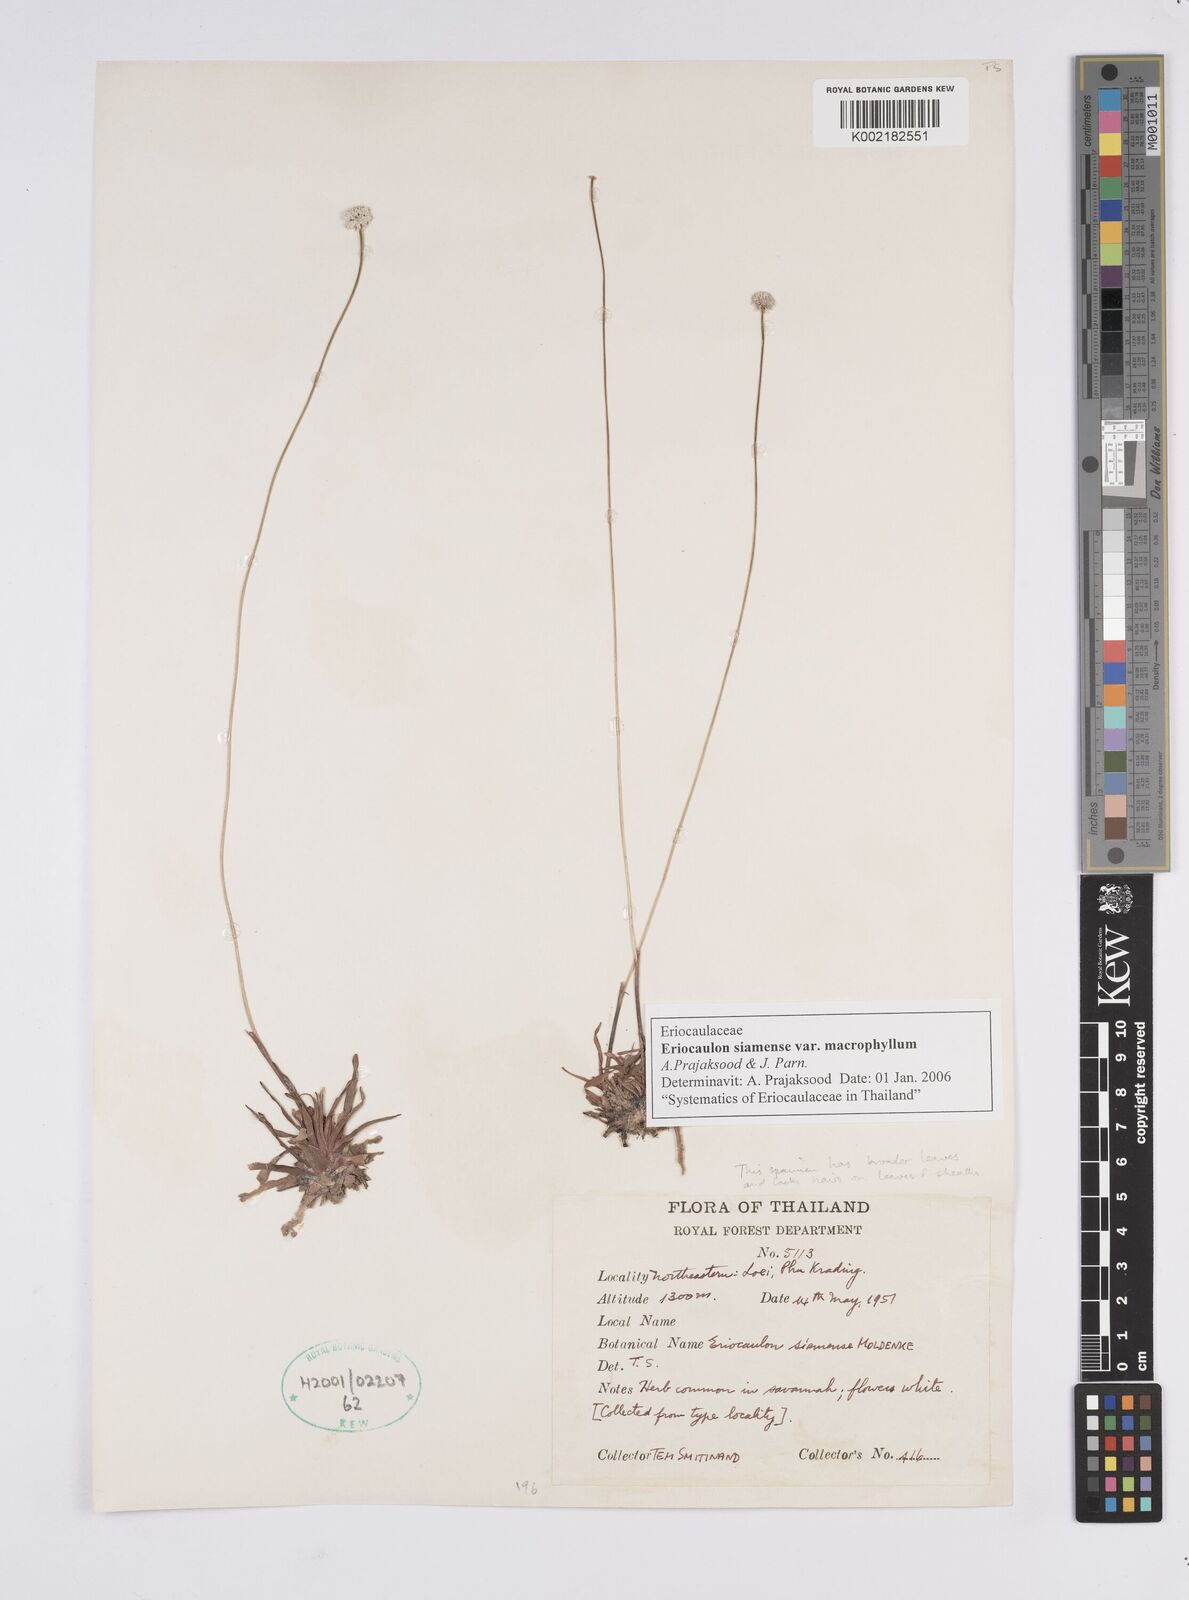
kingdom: Plantae
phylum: Tracheophyta
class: Liliopsida
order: Poales
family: Eriocaulaceae
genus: Eriocaulon
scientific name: Eriocaulon siamense
